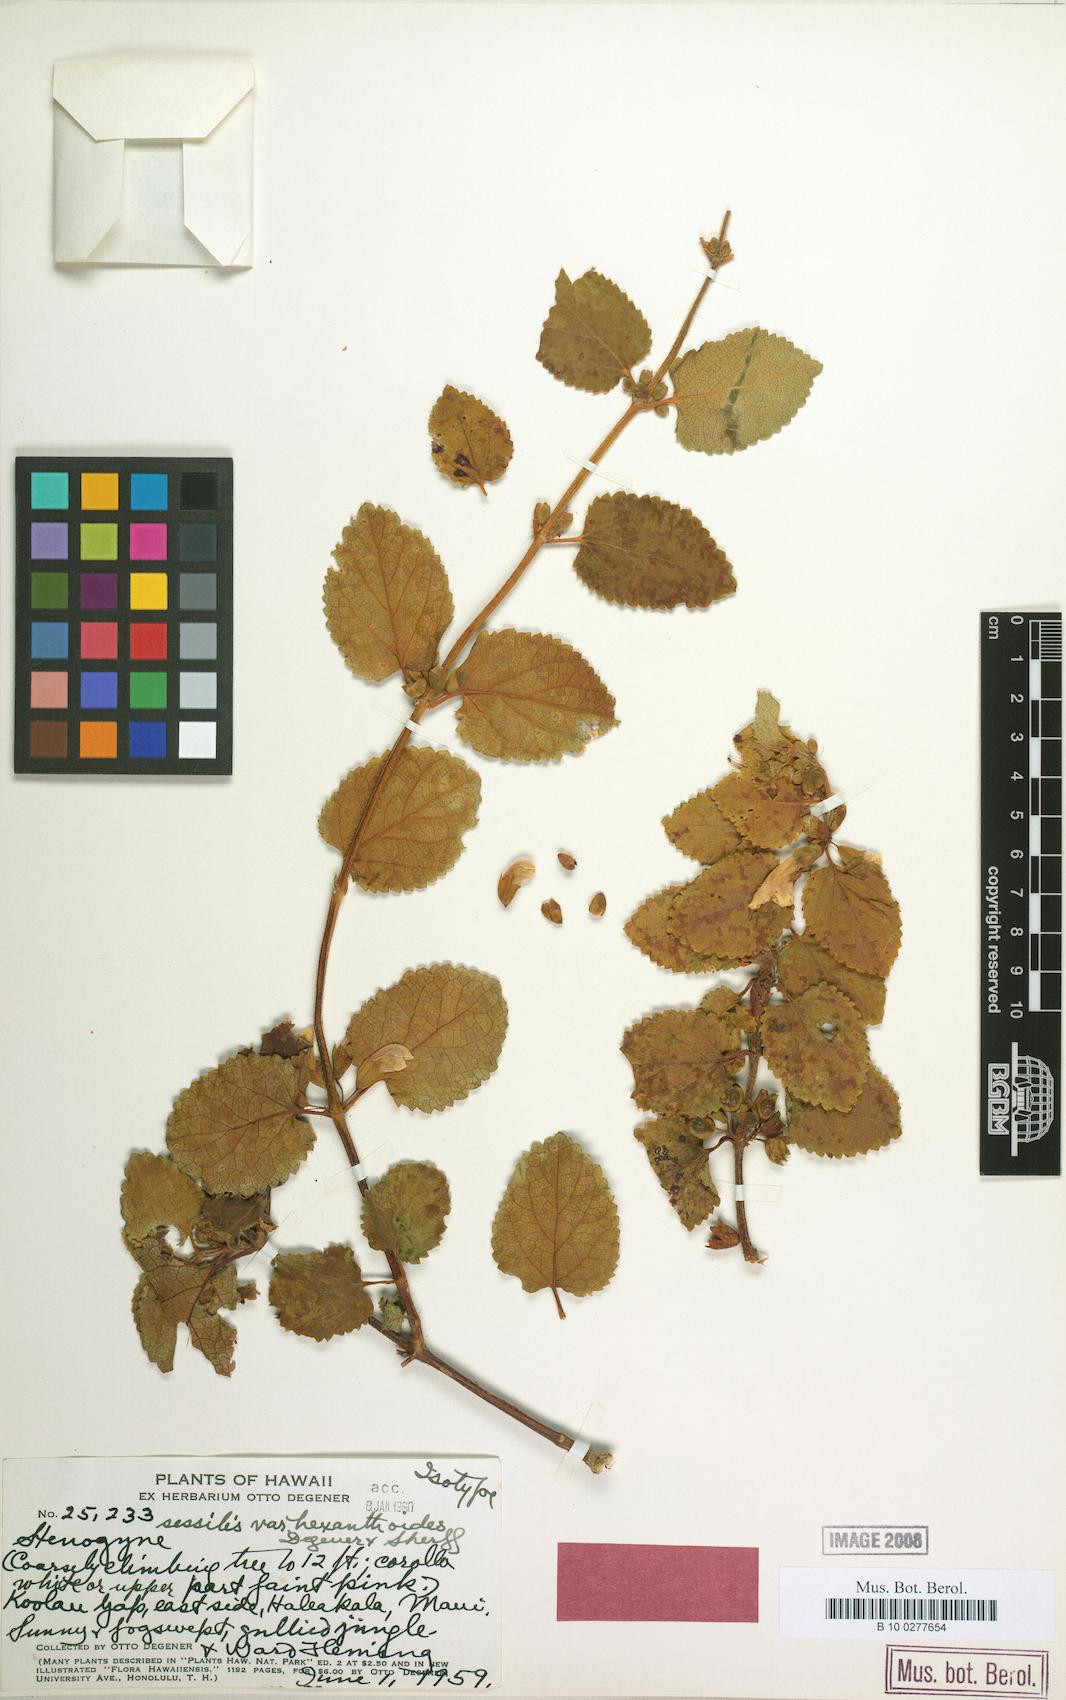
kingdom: Plantae
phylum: Tracheophyta
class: Magnoliopsida
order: Lamiales
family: Lamiaceae
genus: Stenogyne
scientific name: Stenogyne rotundifolia
